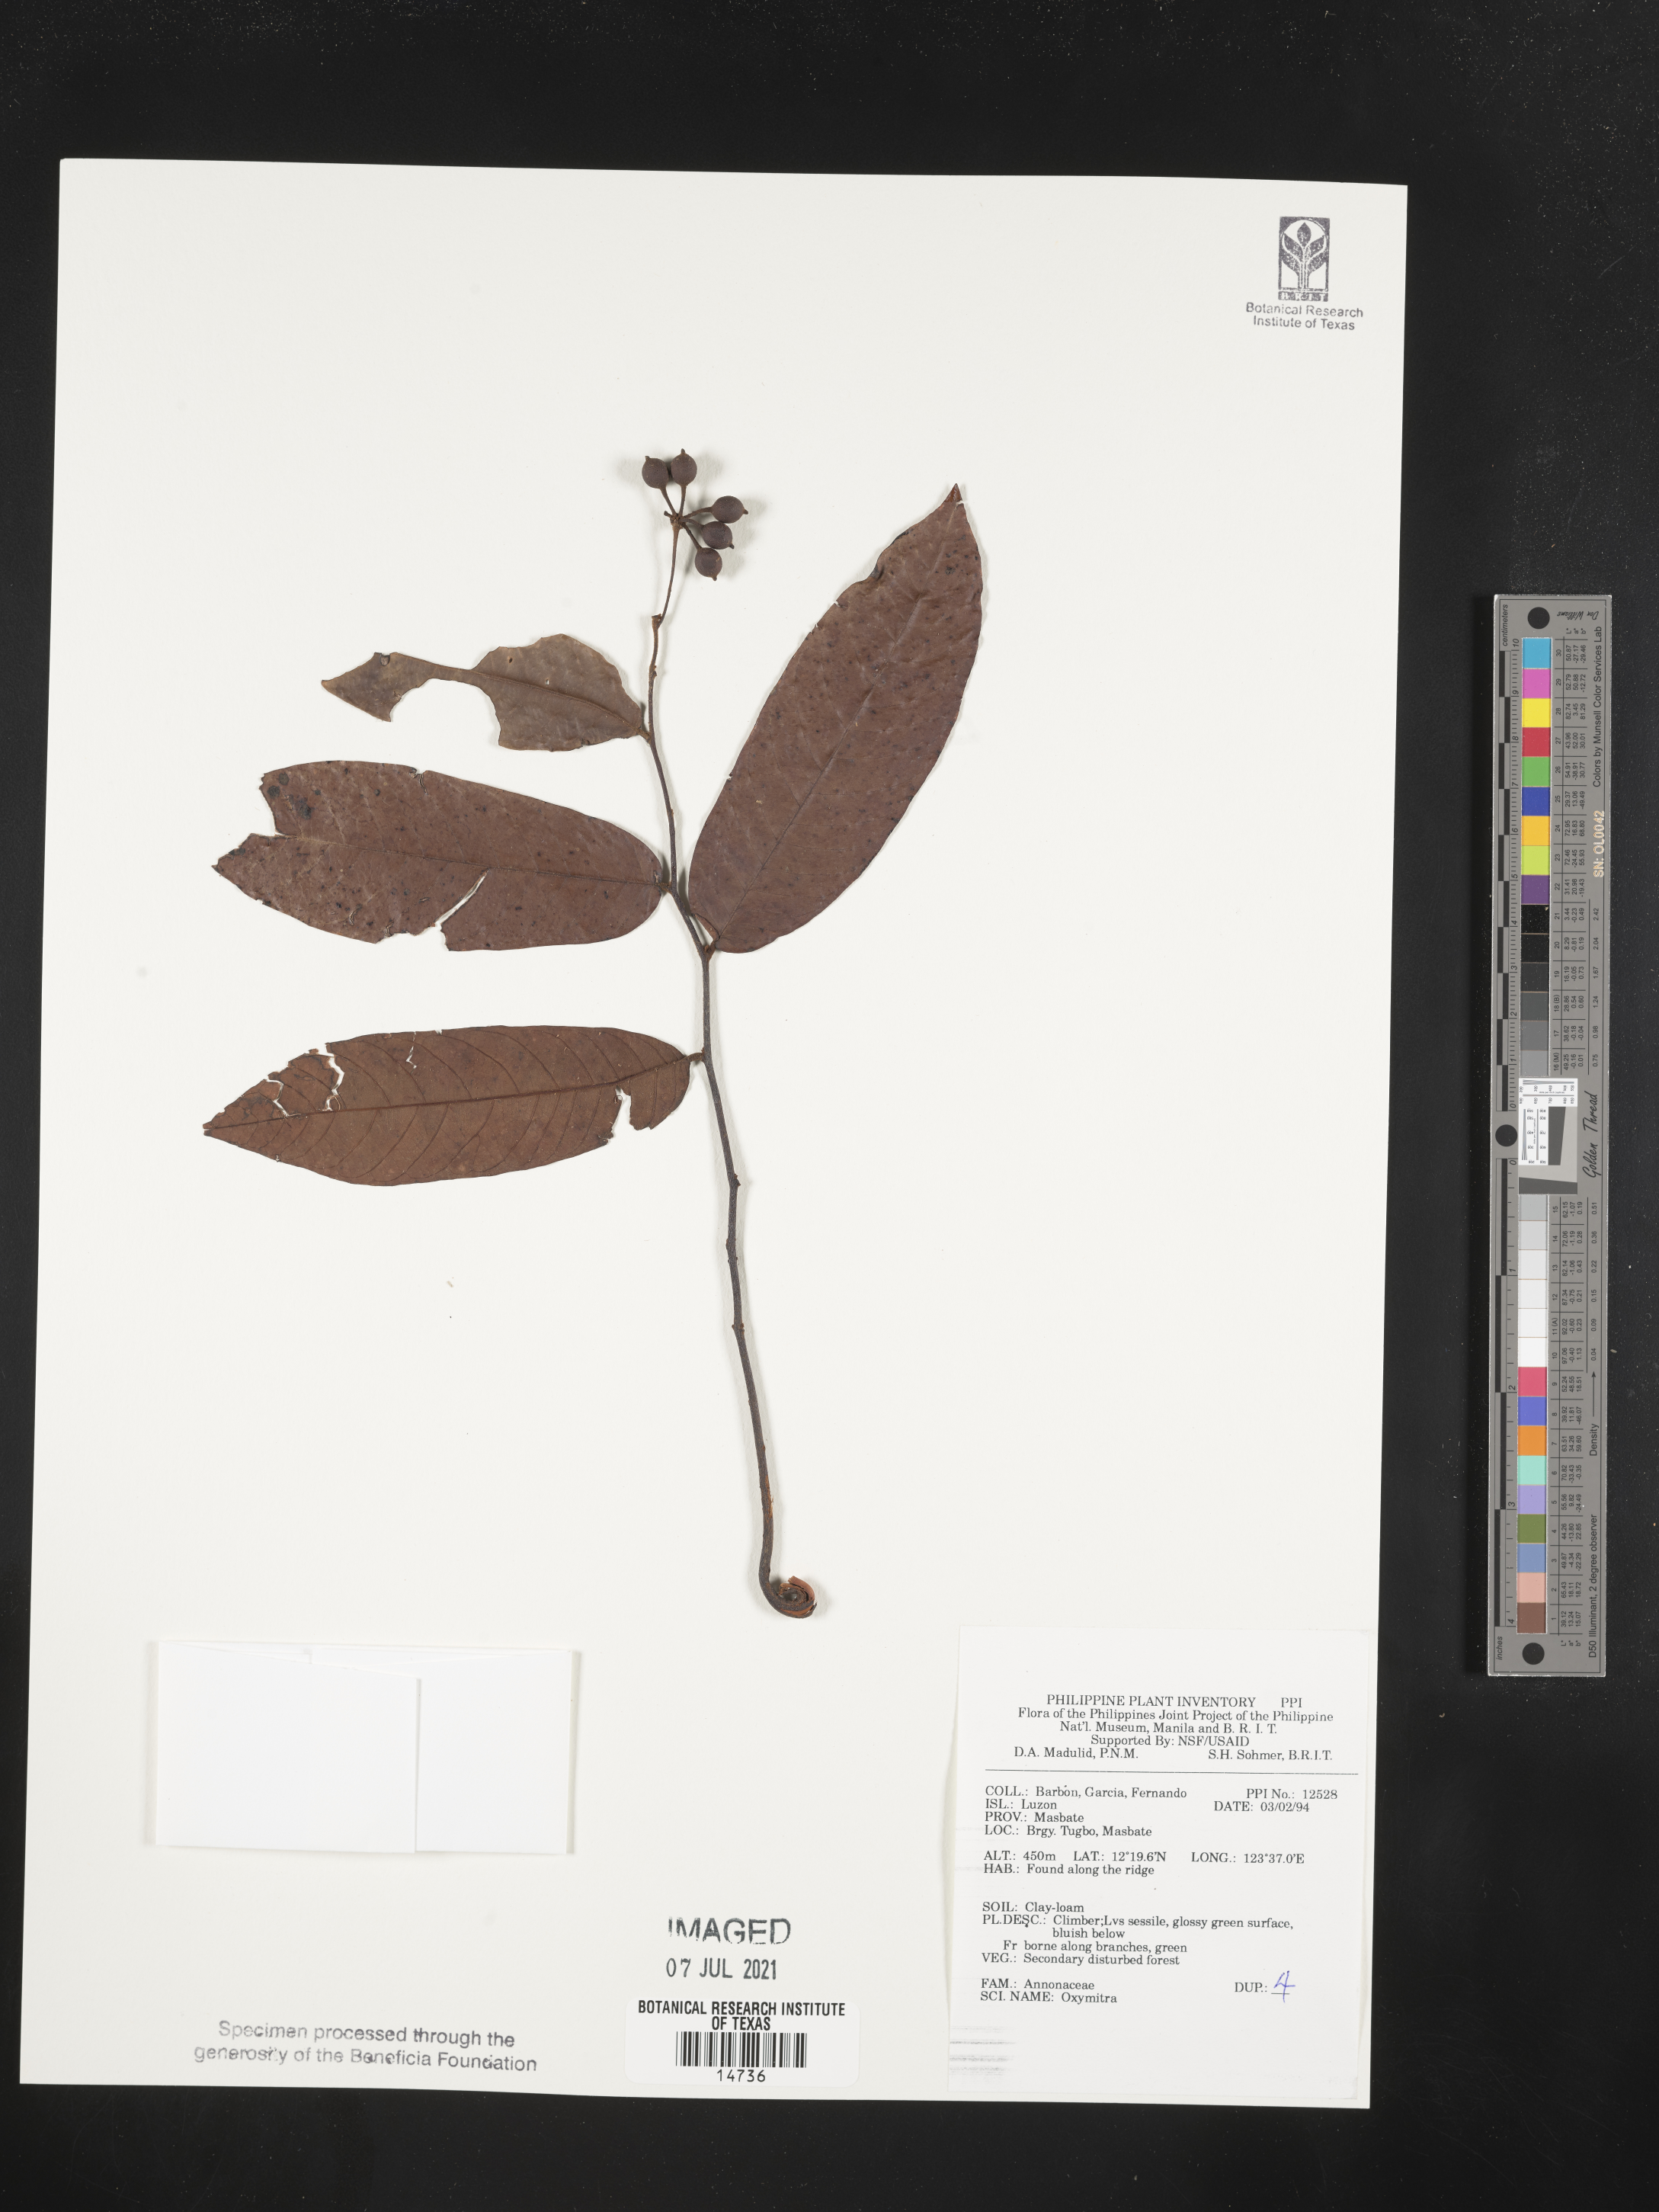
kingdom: Plantae
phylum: Marchantiophyta
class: Marchantiopsida
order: Marchantiales
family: Ricciaceae
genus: Oxymitra
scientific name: Oxymitra
